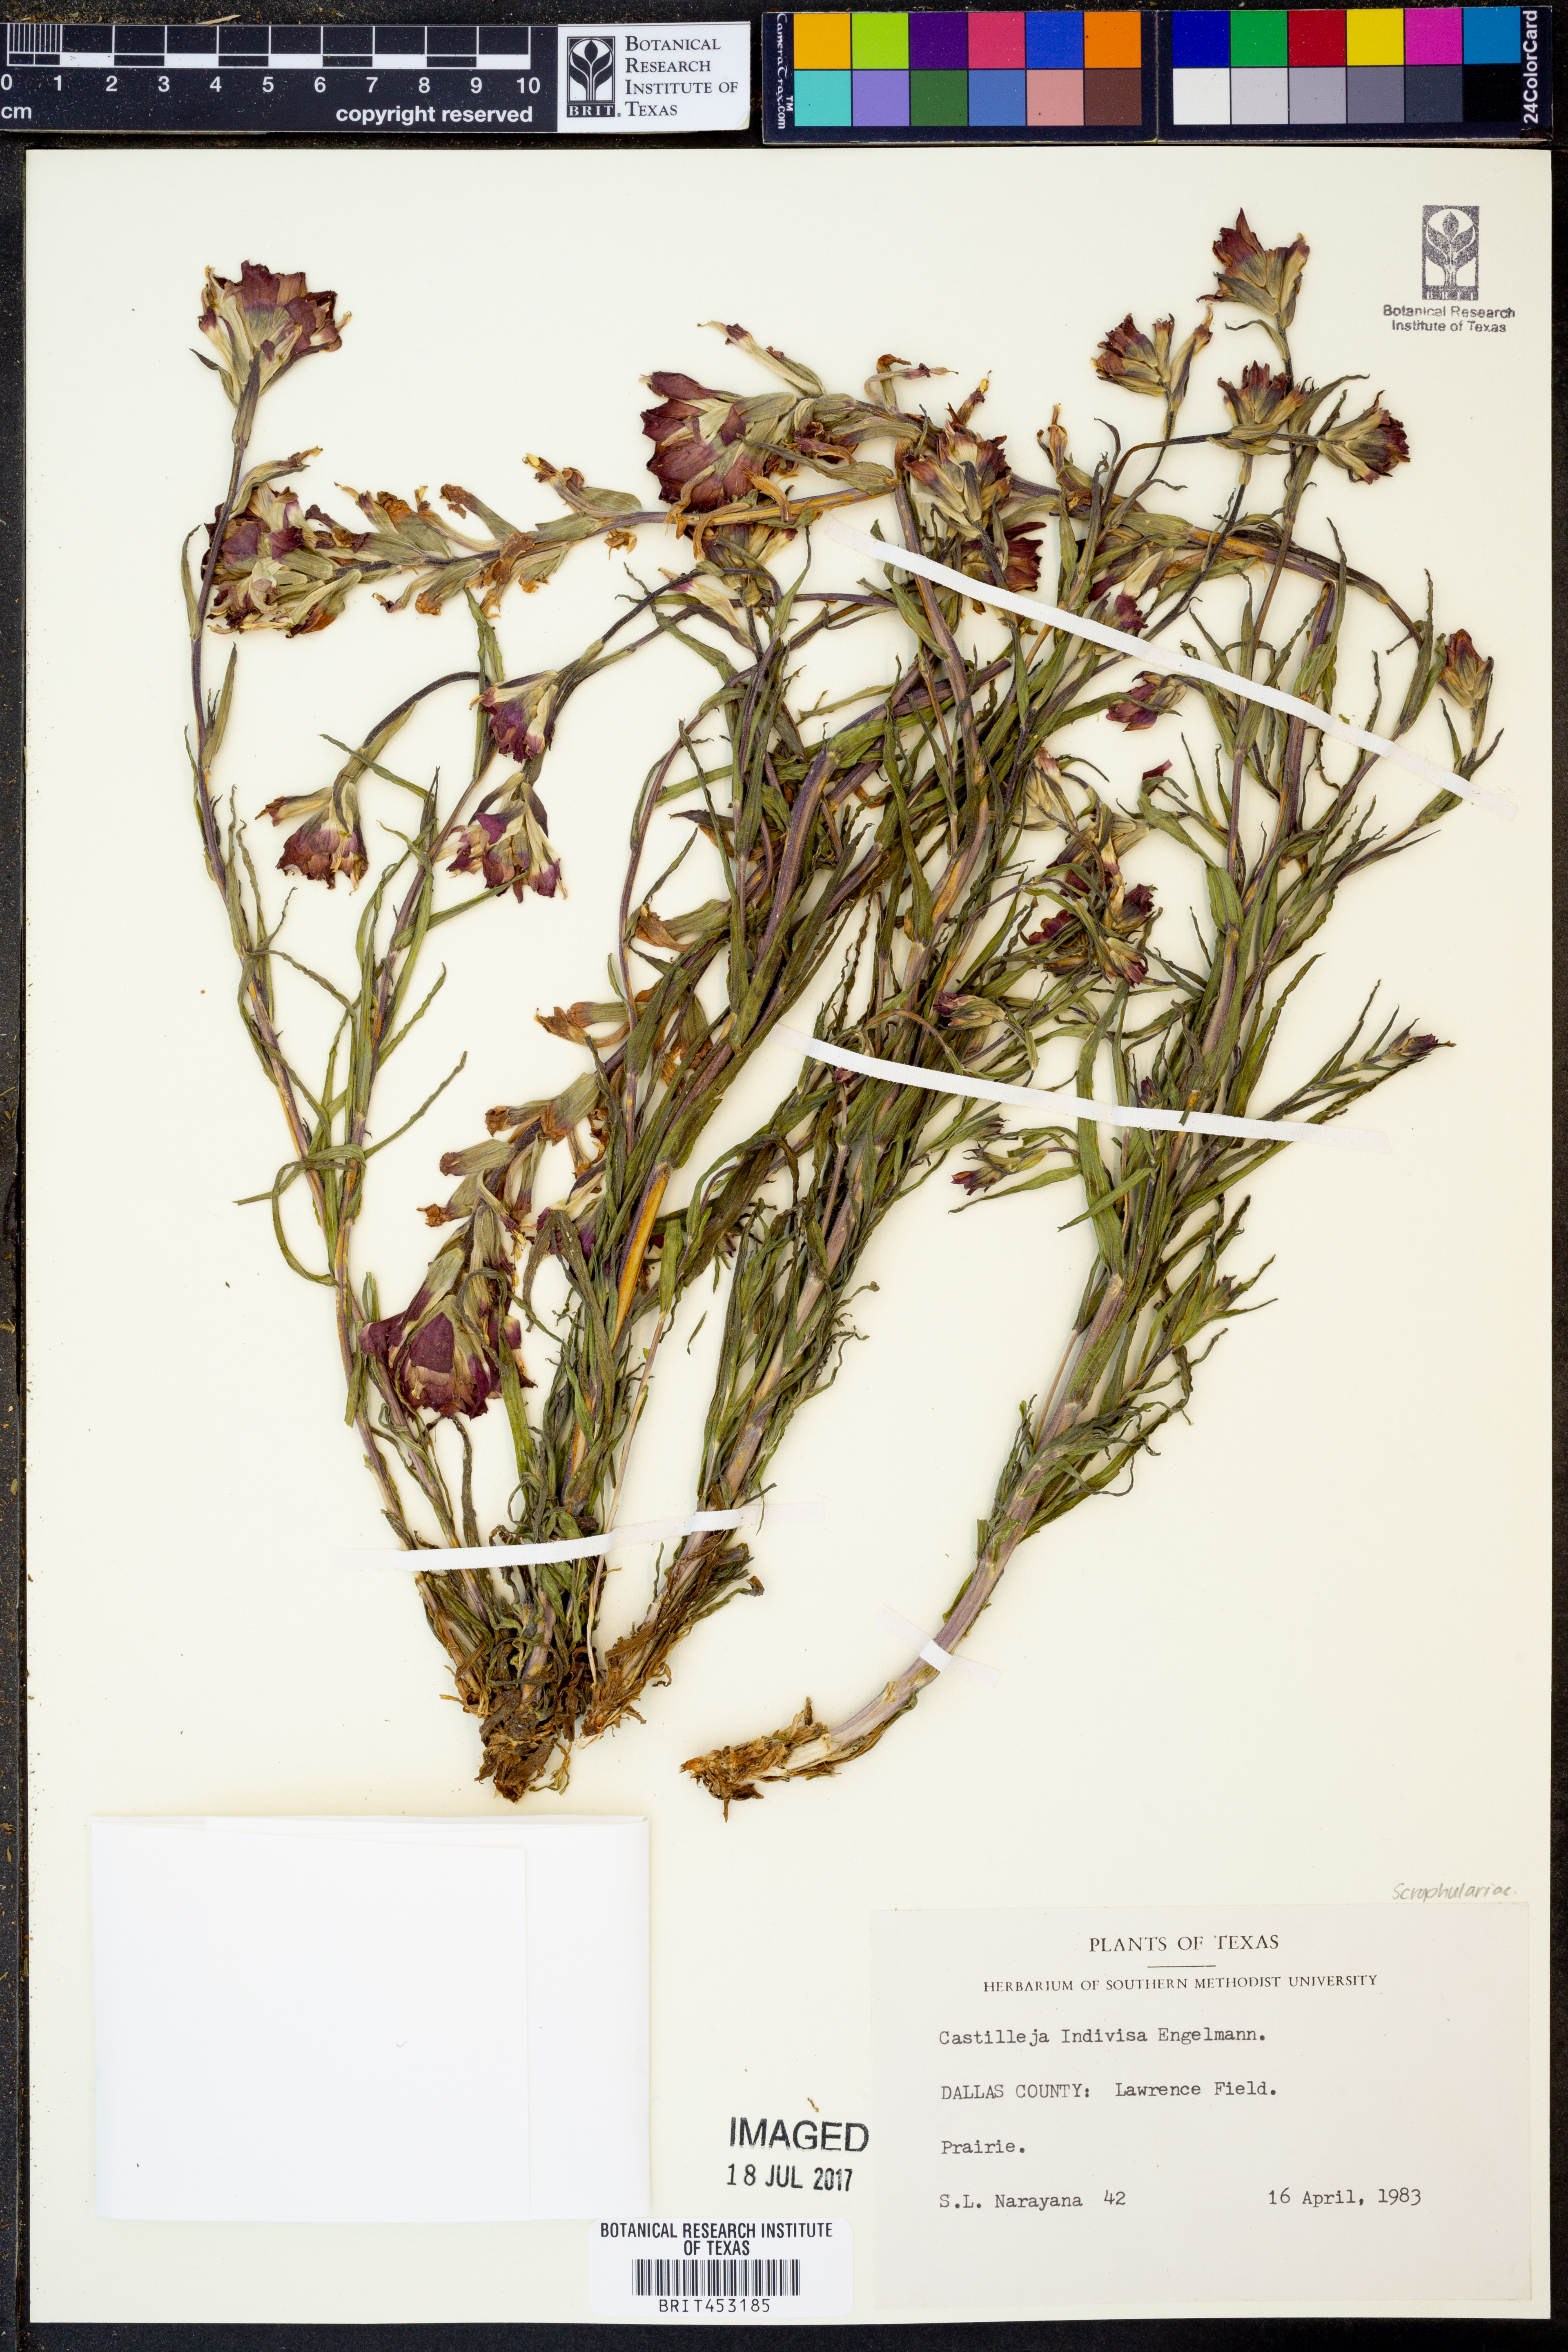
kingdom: Plantae
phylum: Tracheophyta
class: Magnoliopsida
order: Lamiales
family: Orobanchaceae
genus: Castilleja
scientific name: Castilleja indivisa
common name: Texas paintbrush
